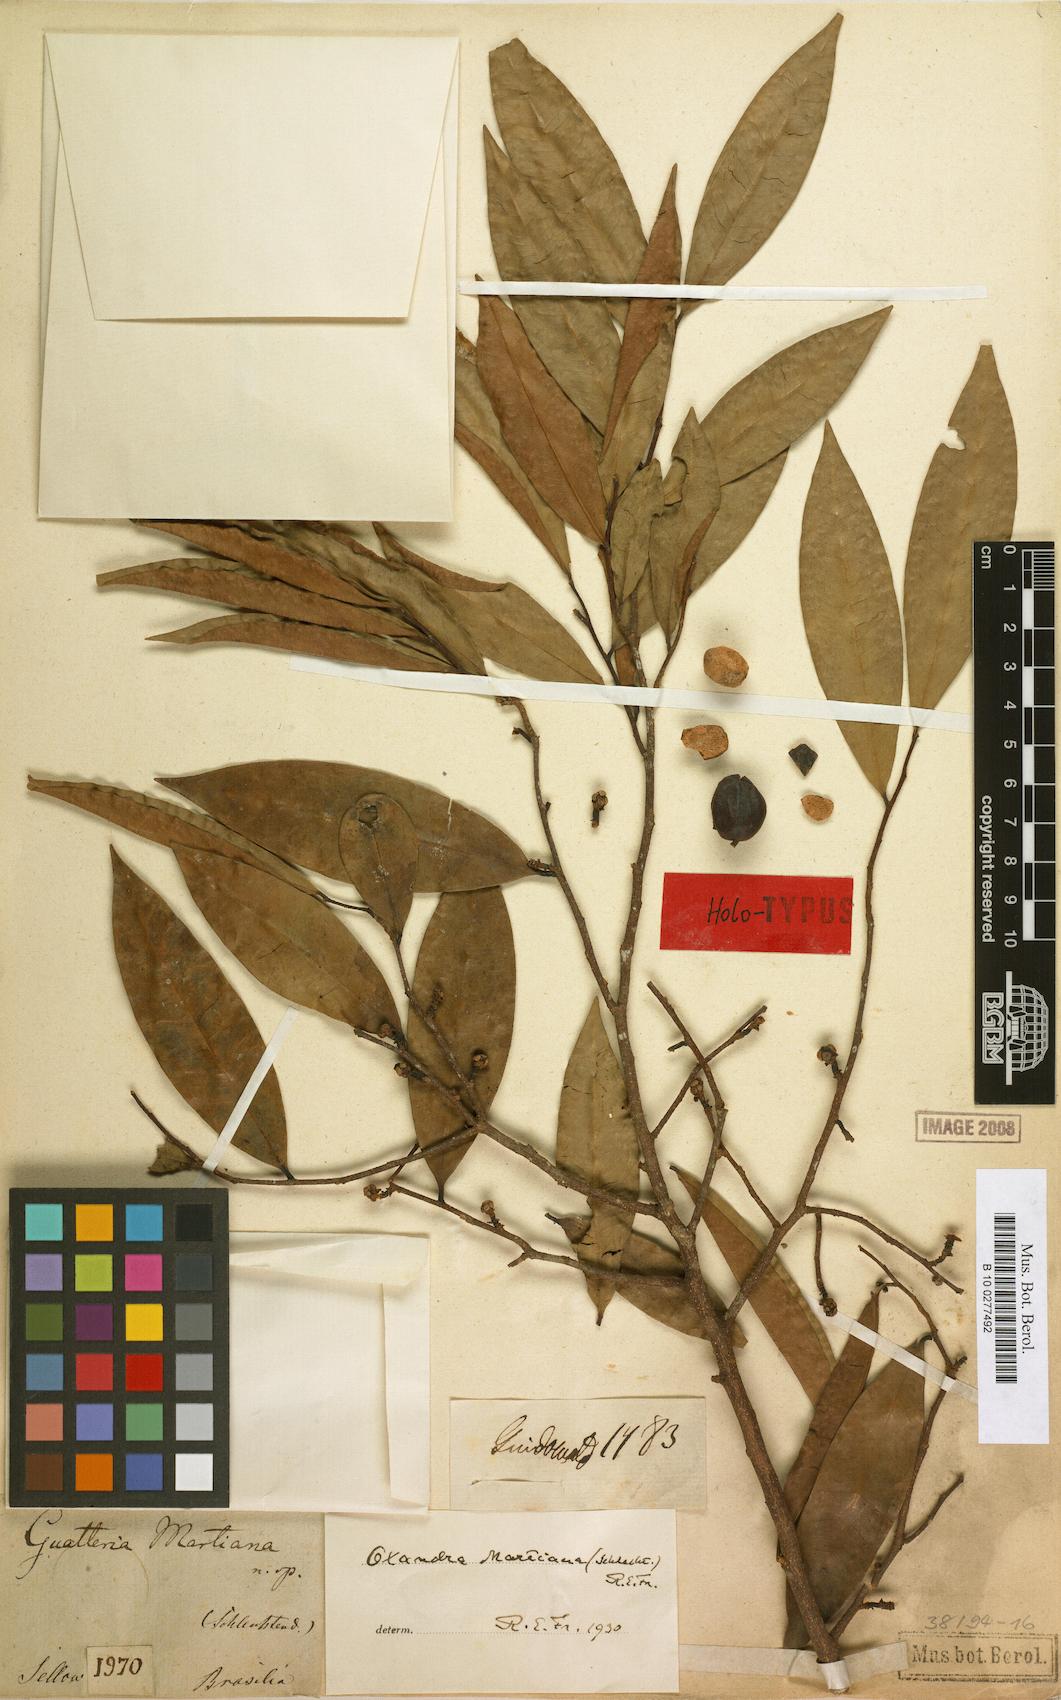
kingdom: Plantae
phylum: Tracheophyta
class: Magnoliopsida
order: Magnoliales
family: Annonaceae
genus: Oxandra
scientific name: Oxandra martiana
